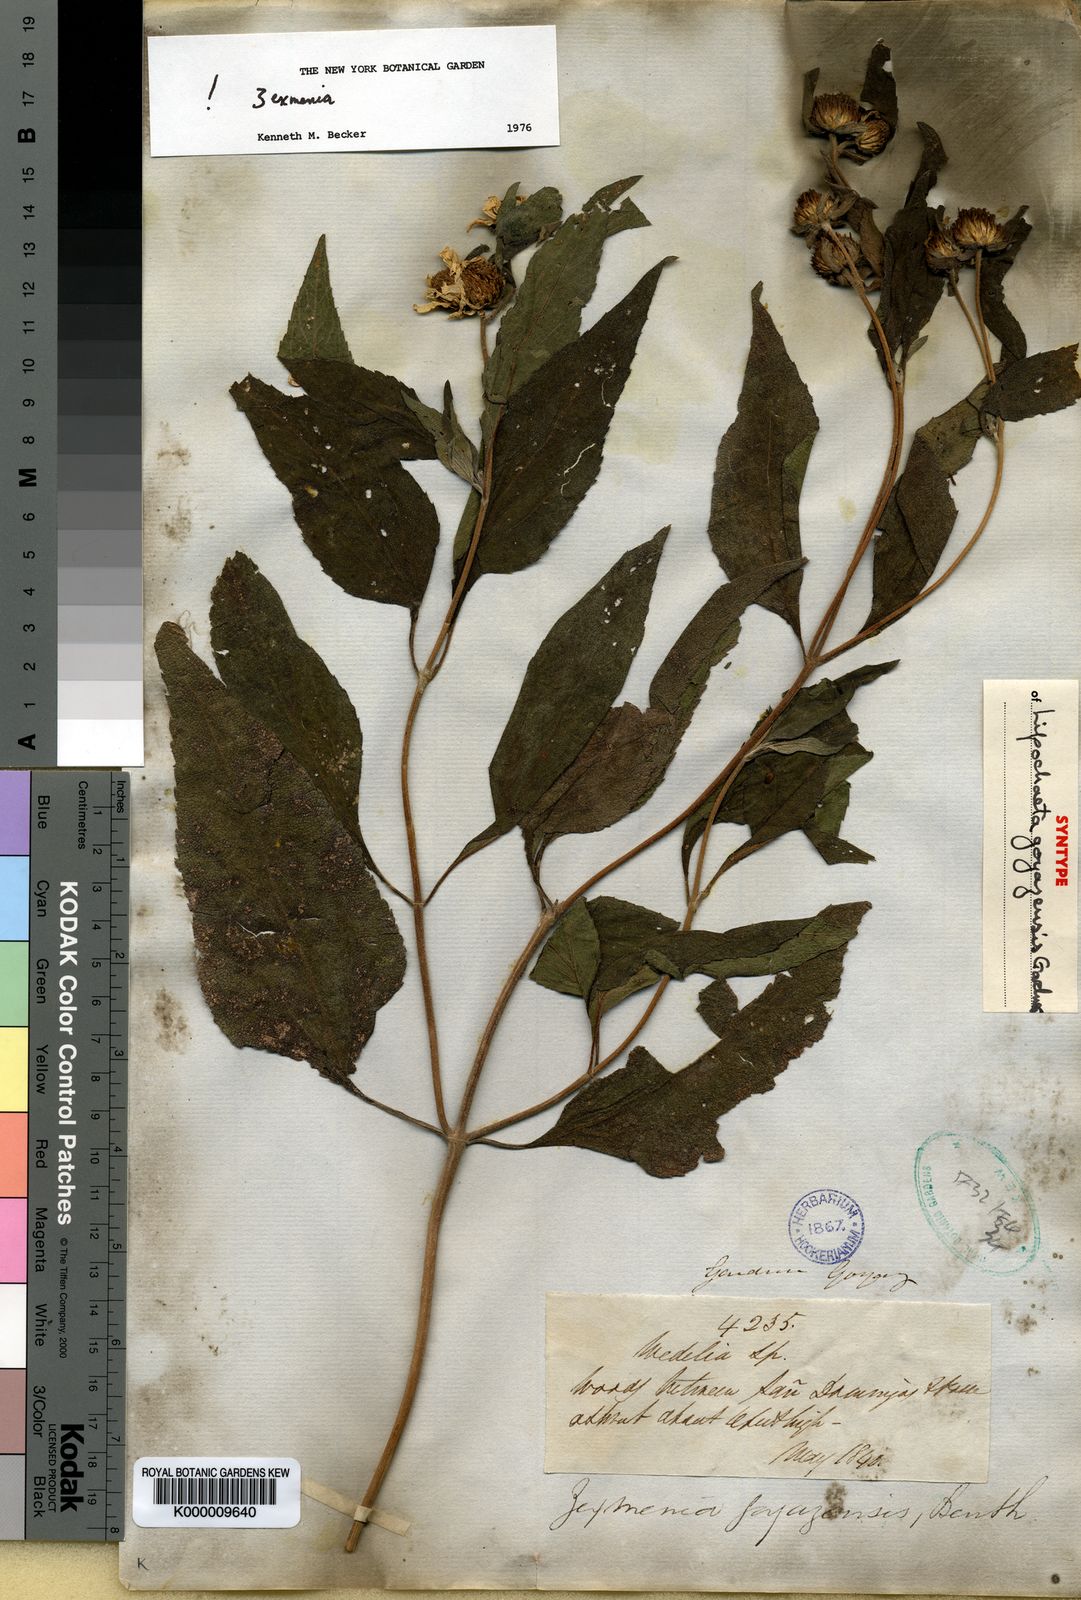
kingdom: Plantae
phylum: Tracheophyta
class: Magnoliopsida
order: Asterales
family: Asteraceae
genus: Dimerostemma
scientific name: Dimerostemma goyazense
